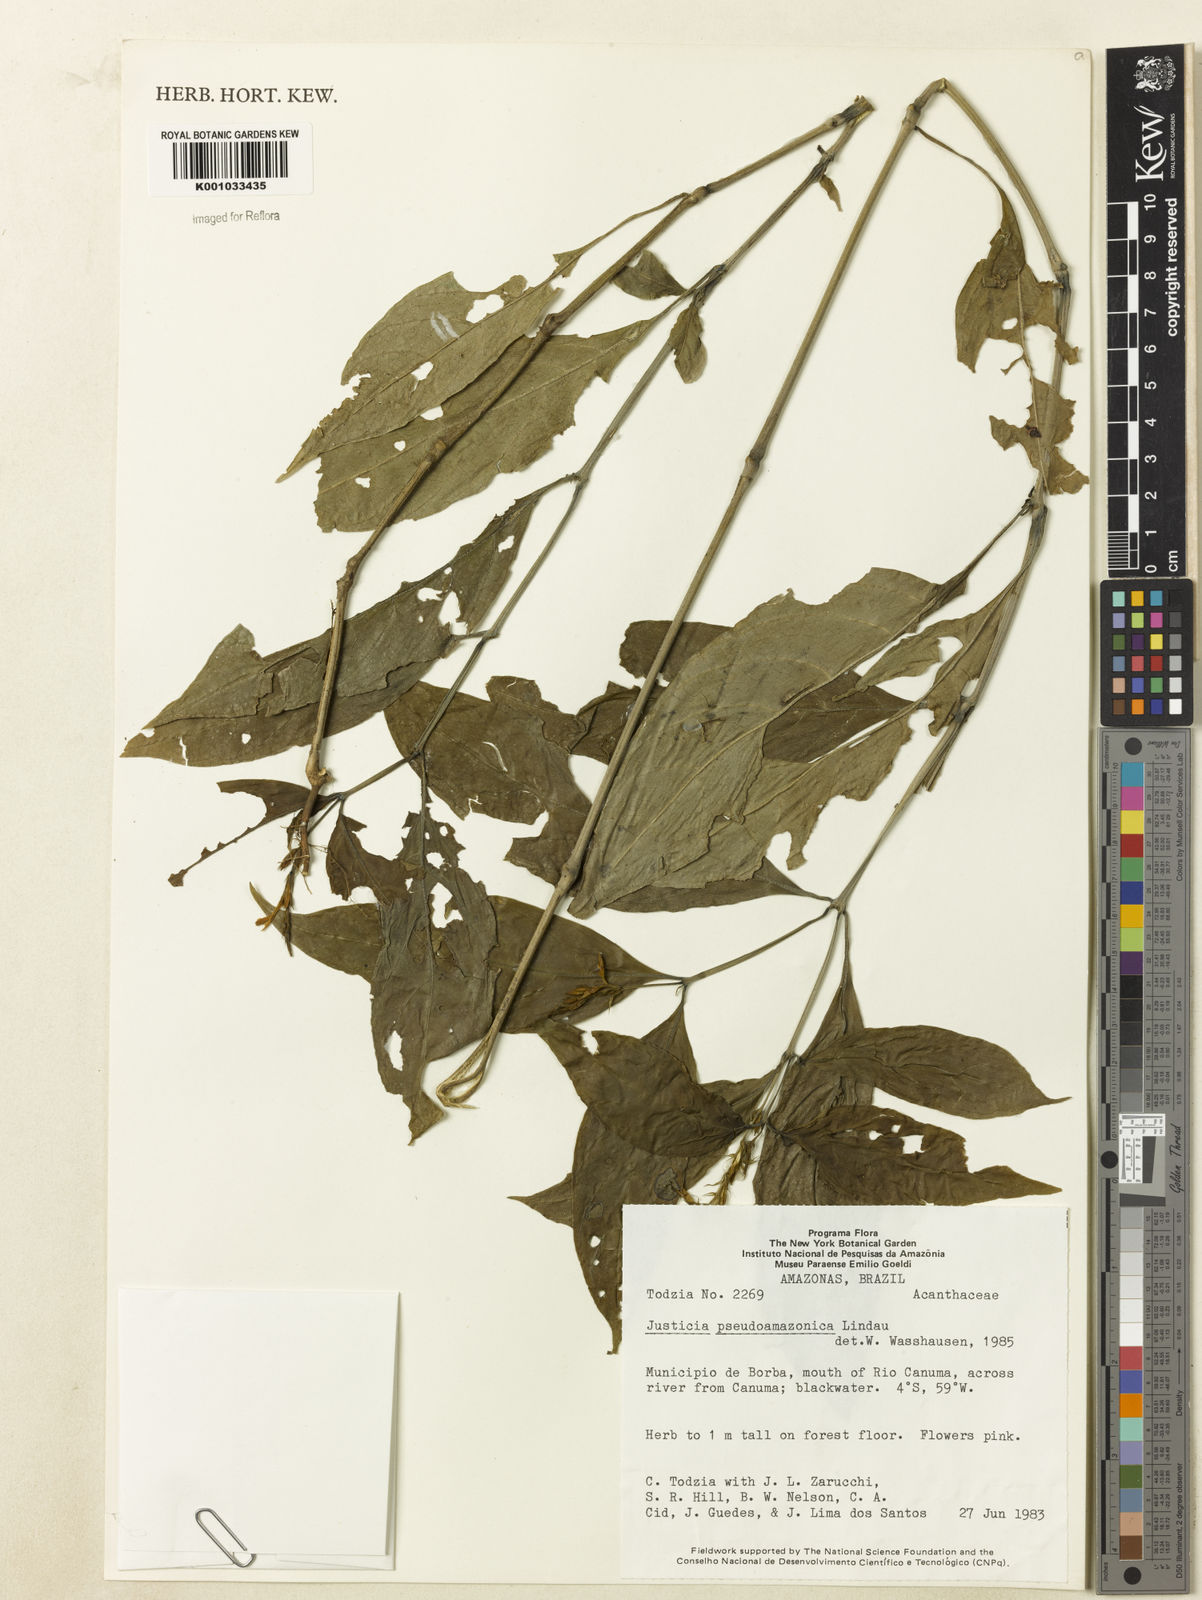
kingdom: Plantae
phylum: Tracheophyta
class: Magnoliopsida
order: Lamiales
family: Acanthaceae
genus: Justicia
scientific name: Justicia pseudoamazonica
